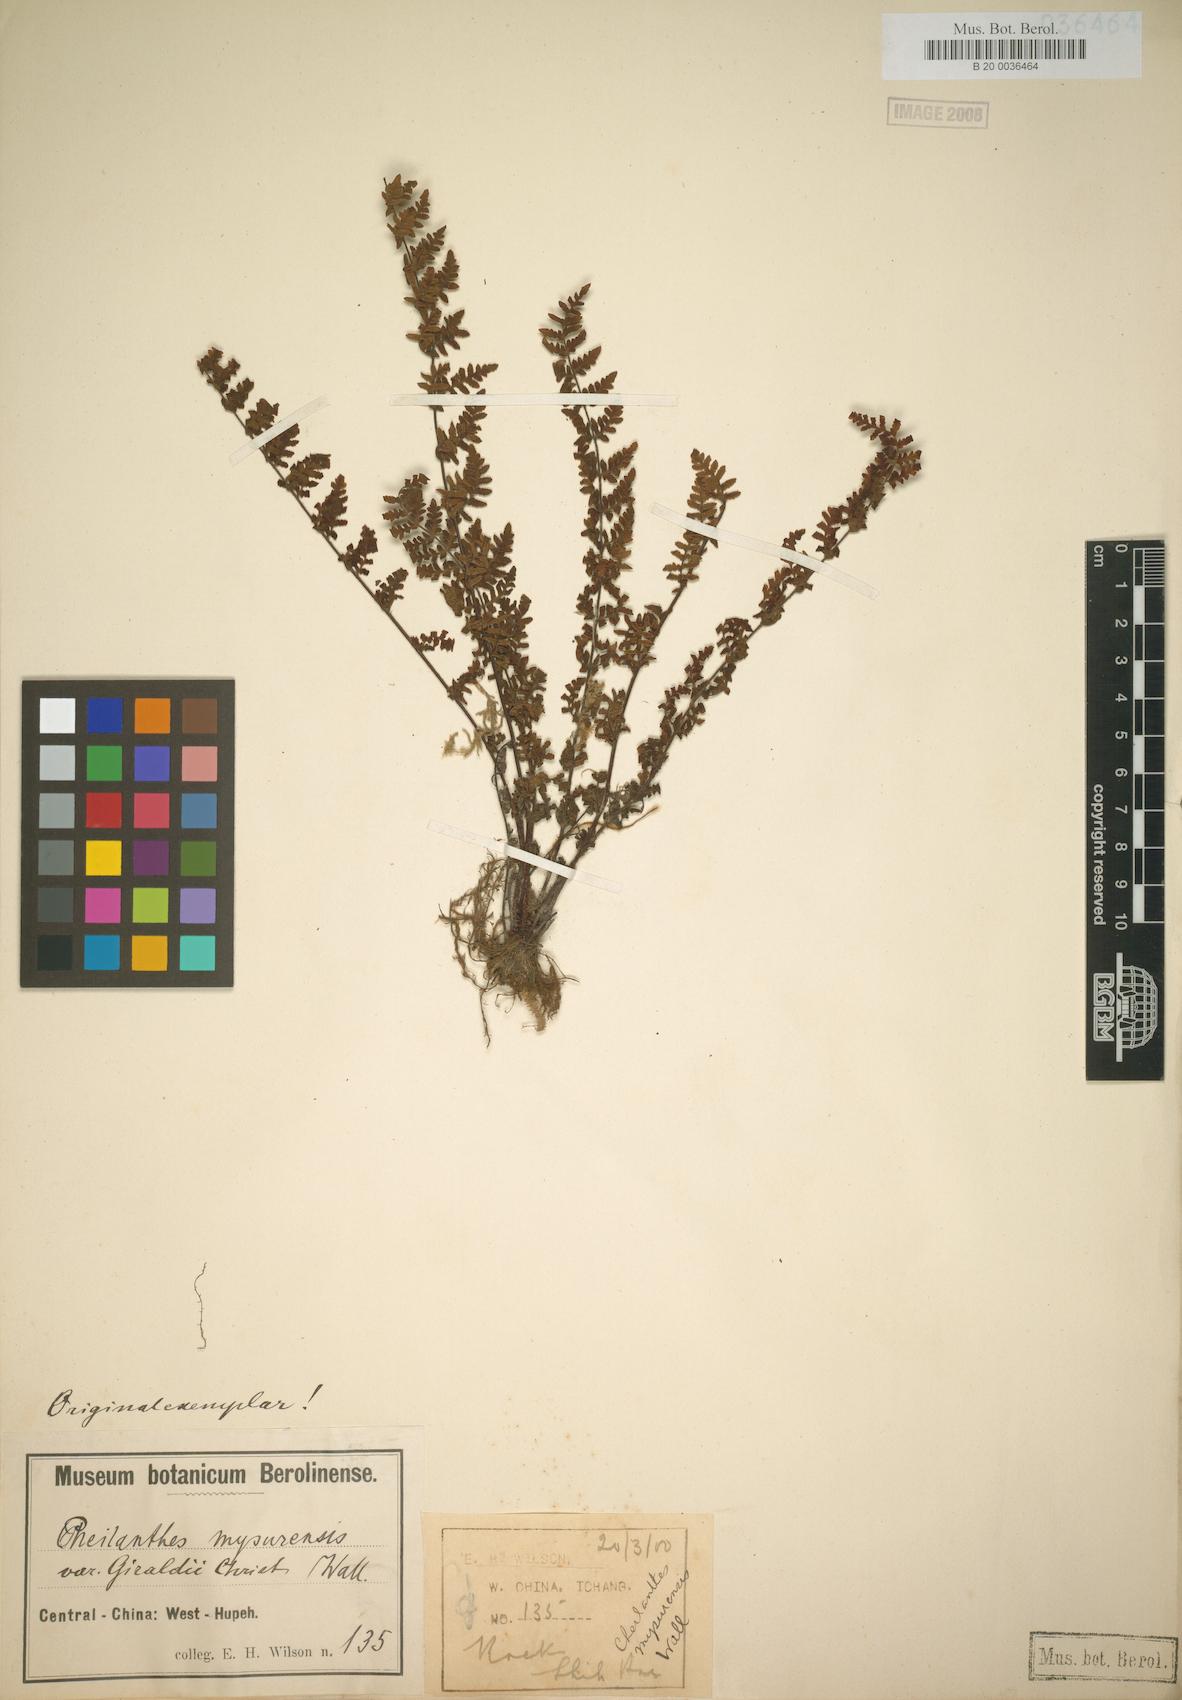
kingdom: Plantae
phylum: Tracheophyta
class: Polypodiopsida
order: Polypodiales
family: Pteridaceae
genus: Oeosporangium
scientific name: Oeosporangium chusanum
